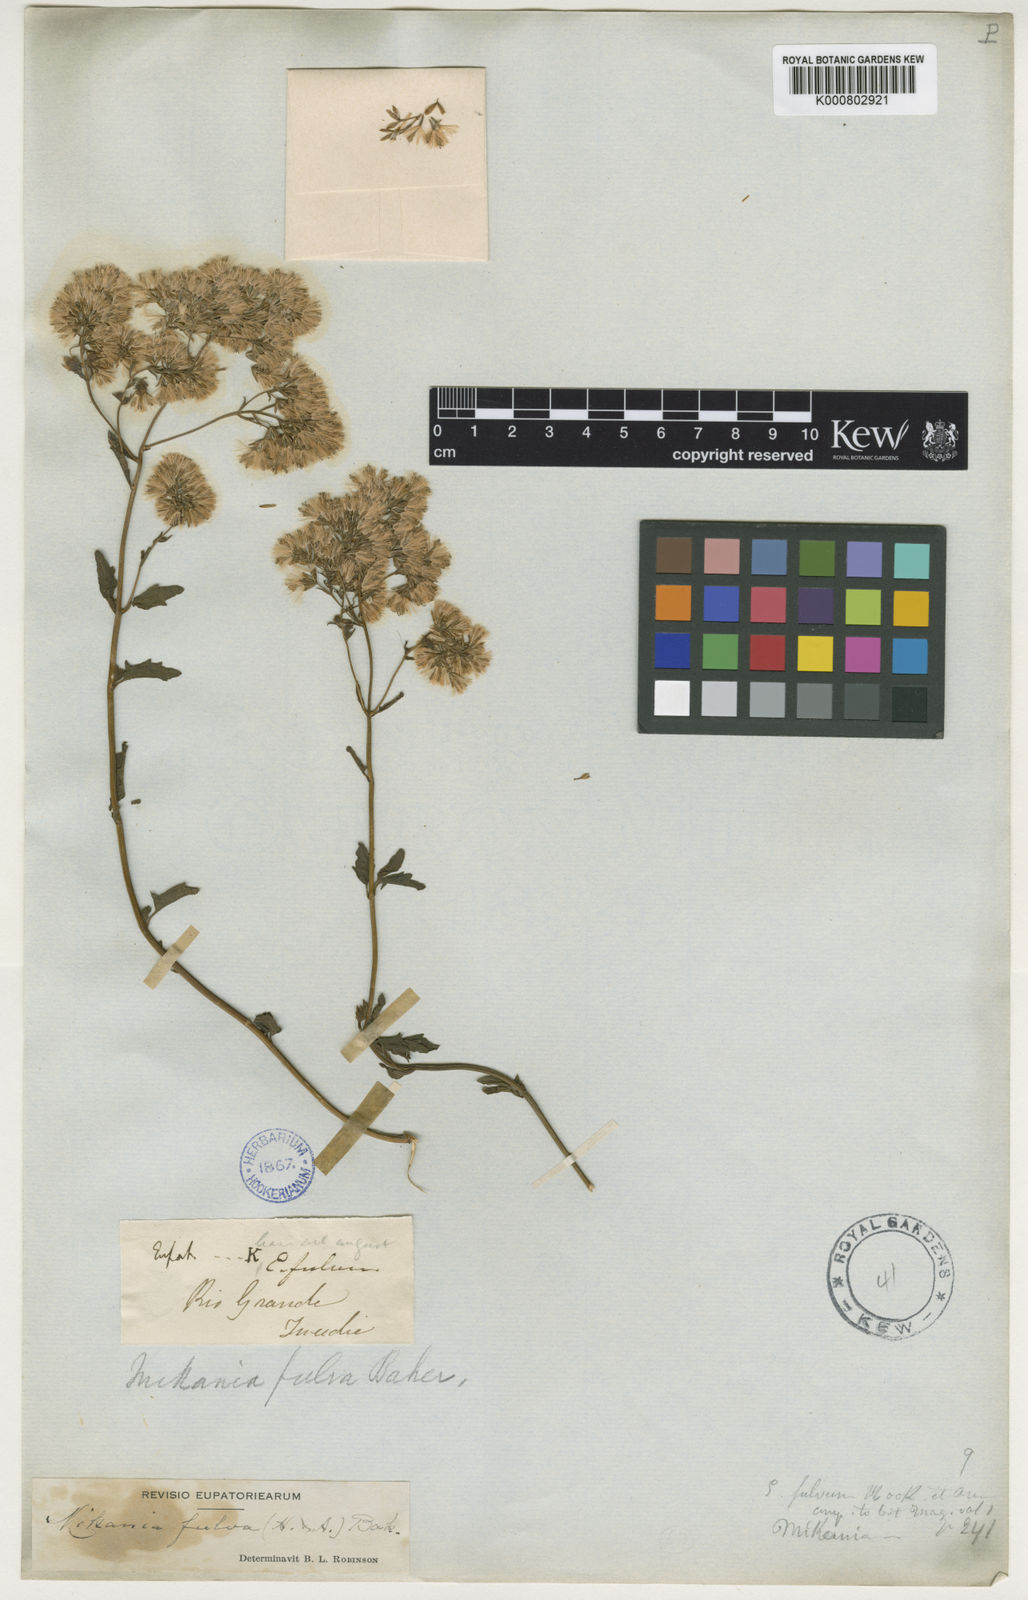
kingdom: Plantae
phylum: Tracheophyta
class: Magnoliopsida
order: Asterales
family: Asteraceae
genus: Mikania
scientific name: Mikania fulva
